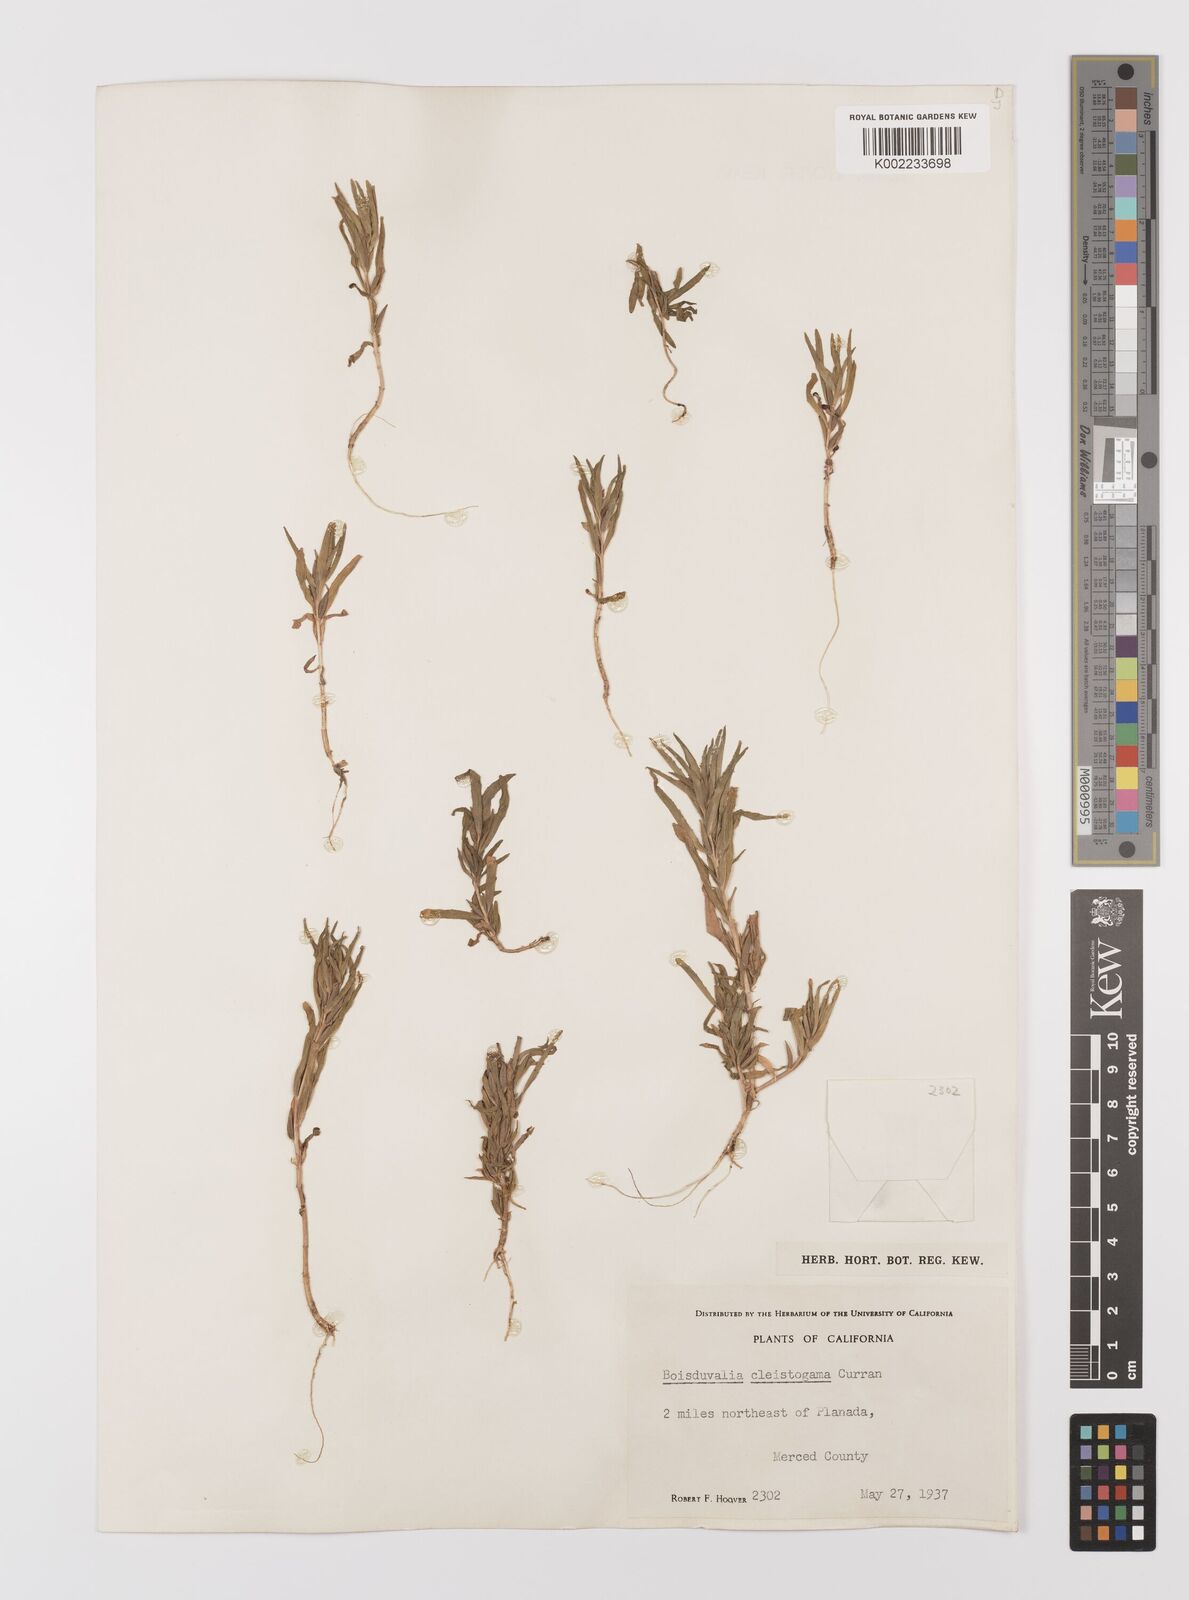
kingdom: Plantae
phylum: Tracheophyta
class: Magnoliopsida
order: Myrtales
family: Onagraceae
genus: Epilobium
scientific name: Epilobium cleistogamum
